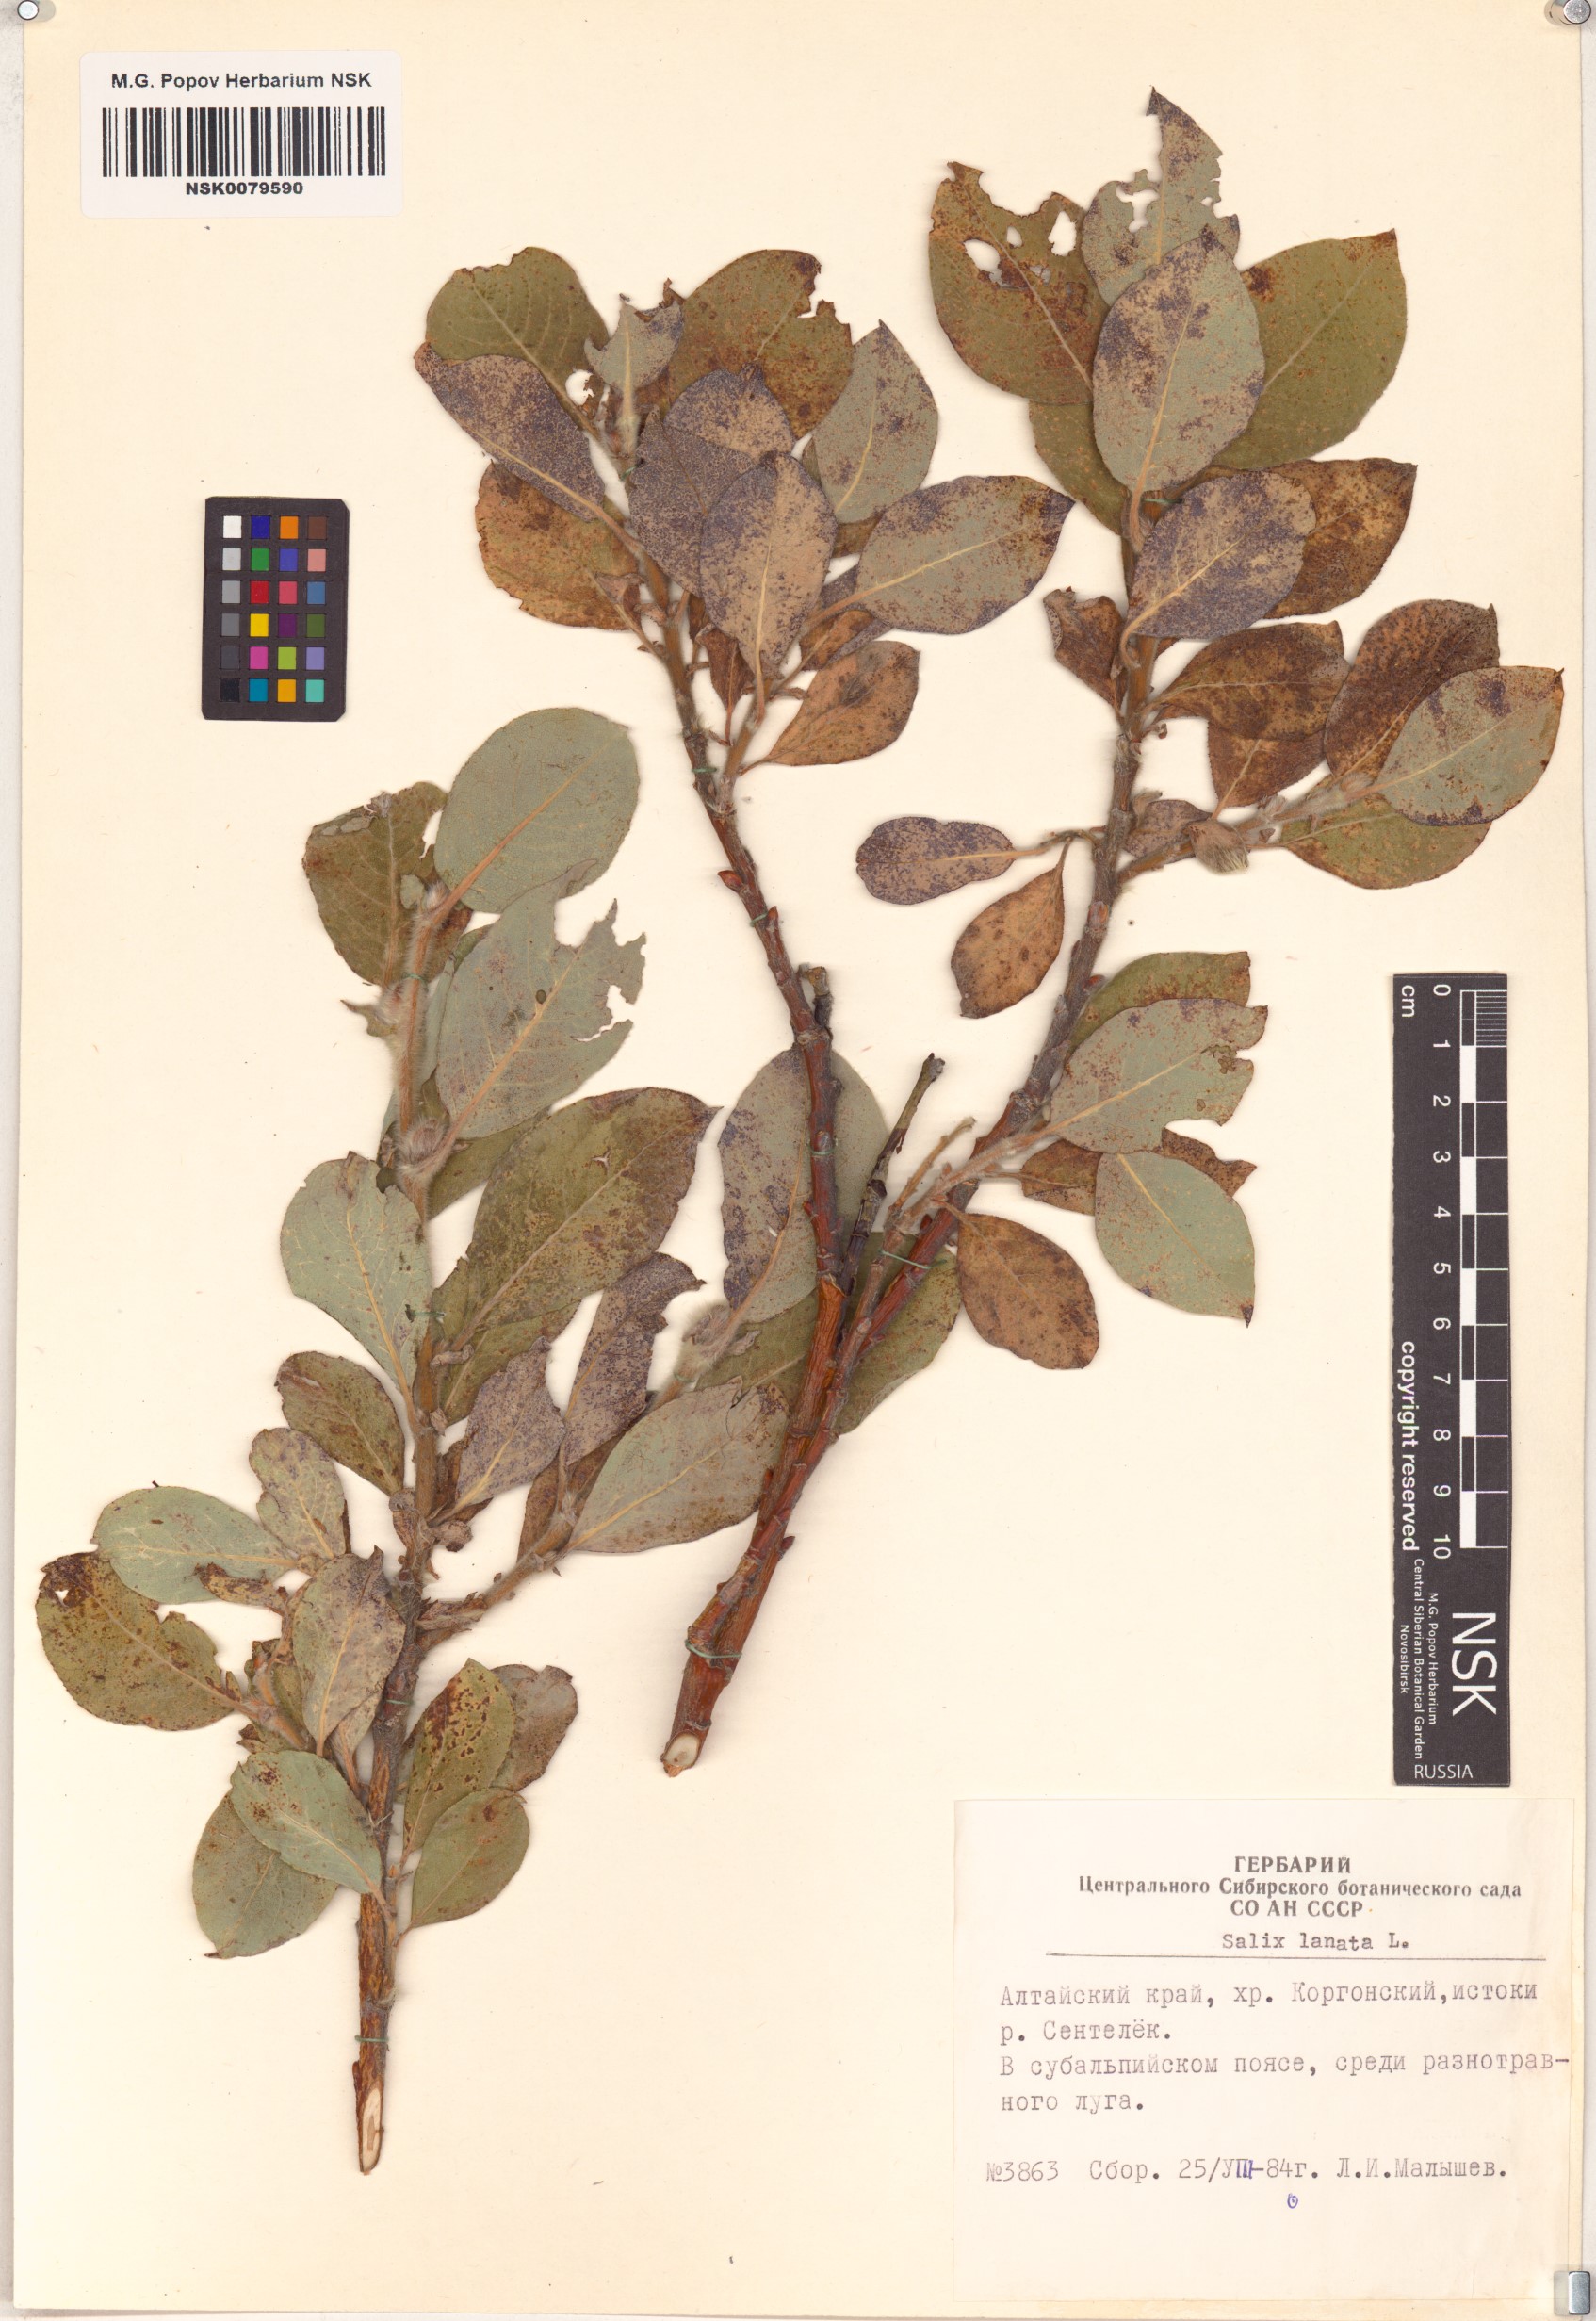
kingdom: Plantae
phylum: Tracheophyta
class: Magnoliopsida
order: Malpighiales
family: Salicaceae
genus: Salix
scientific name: Salix lanata
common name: Woolly willow
